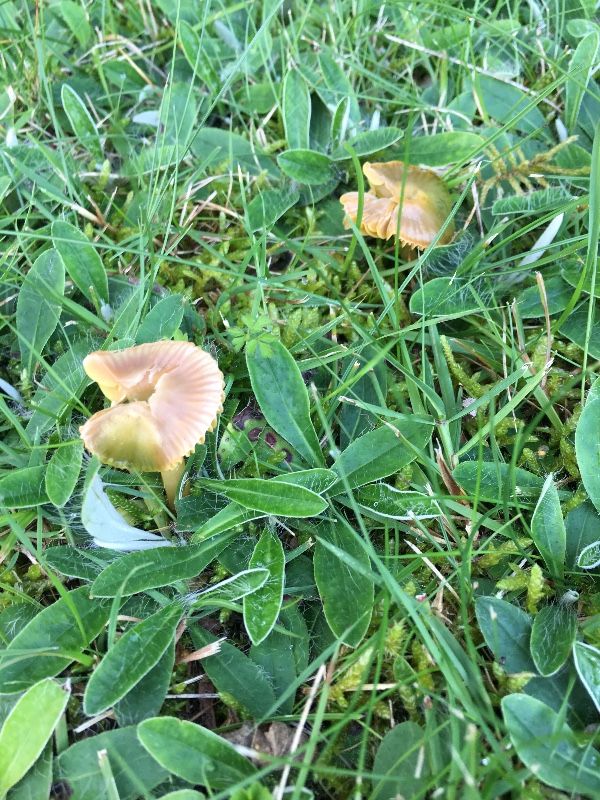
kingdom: Fungi
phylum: Basidiomycota
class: Agaricomycetes
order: Agaricales
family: Hygrophoraceae
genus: Gliophorus
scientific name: Gliophorus psittacinus
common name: papegøje-vokshat
